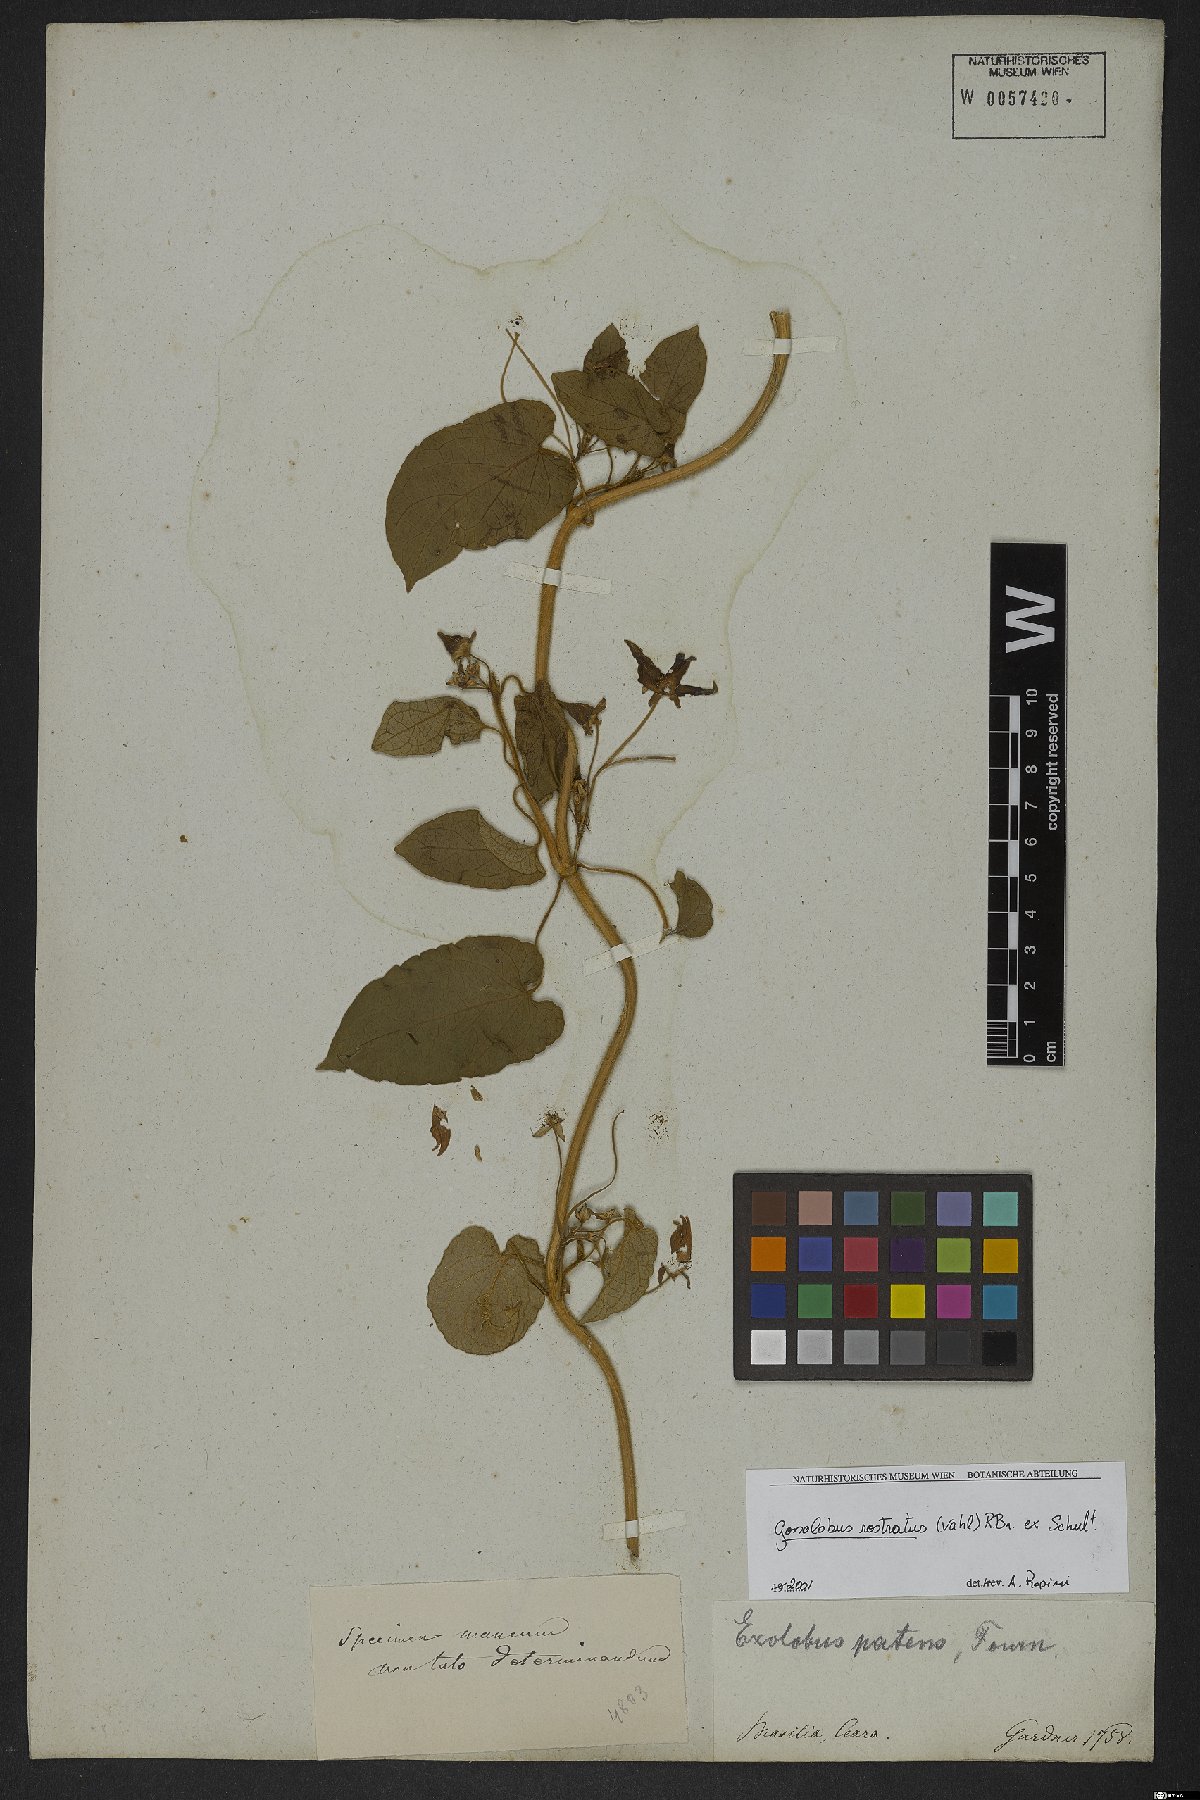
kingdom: Plantae
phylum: Tracheophyta
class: Magnoliopsida
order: Gentianales
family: Apocynaceae
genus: Gonolobus
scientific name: Gonolobus rostratus
